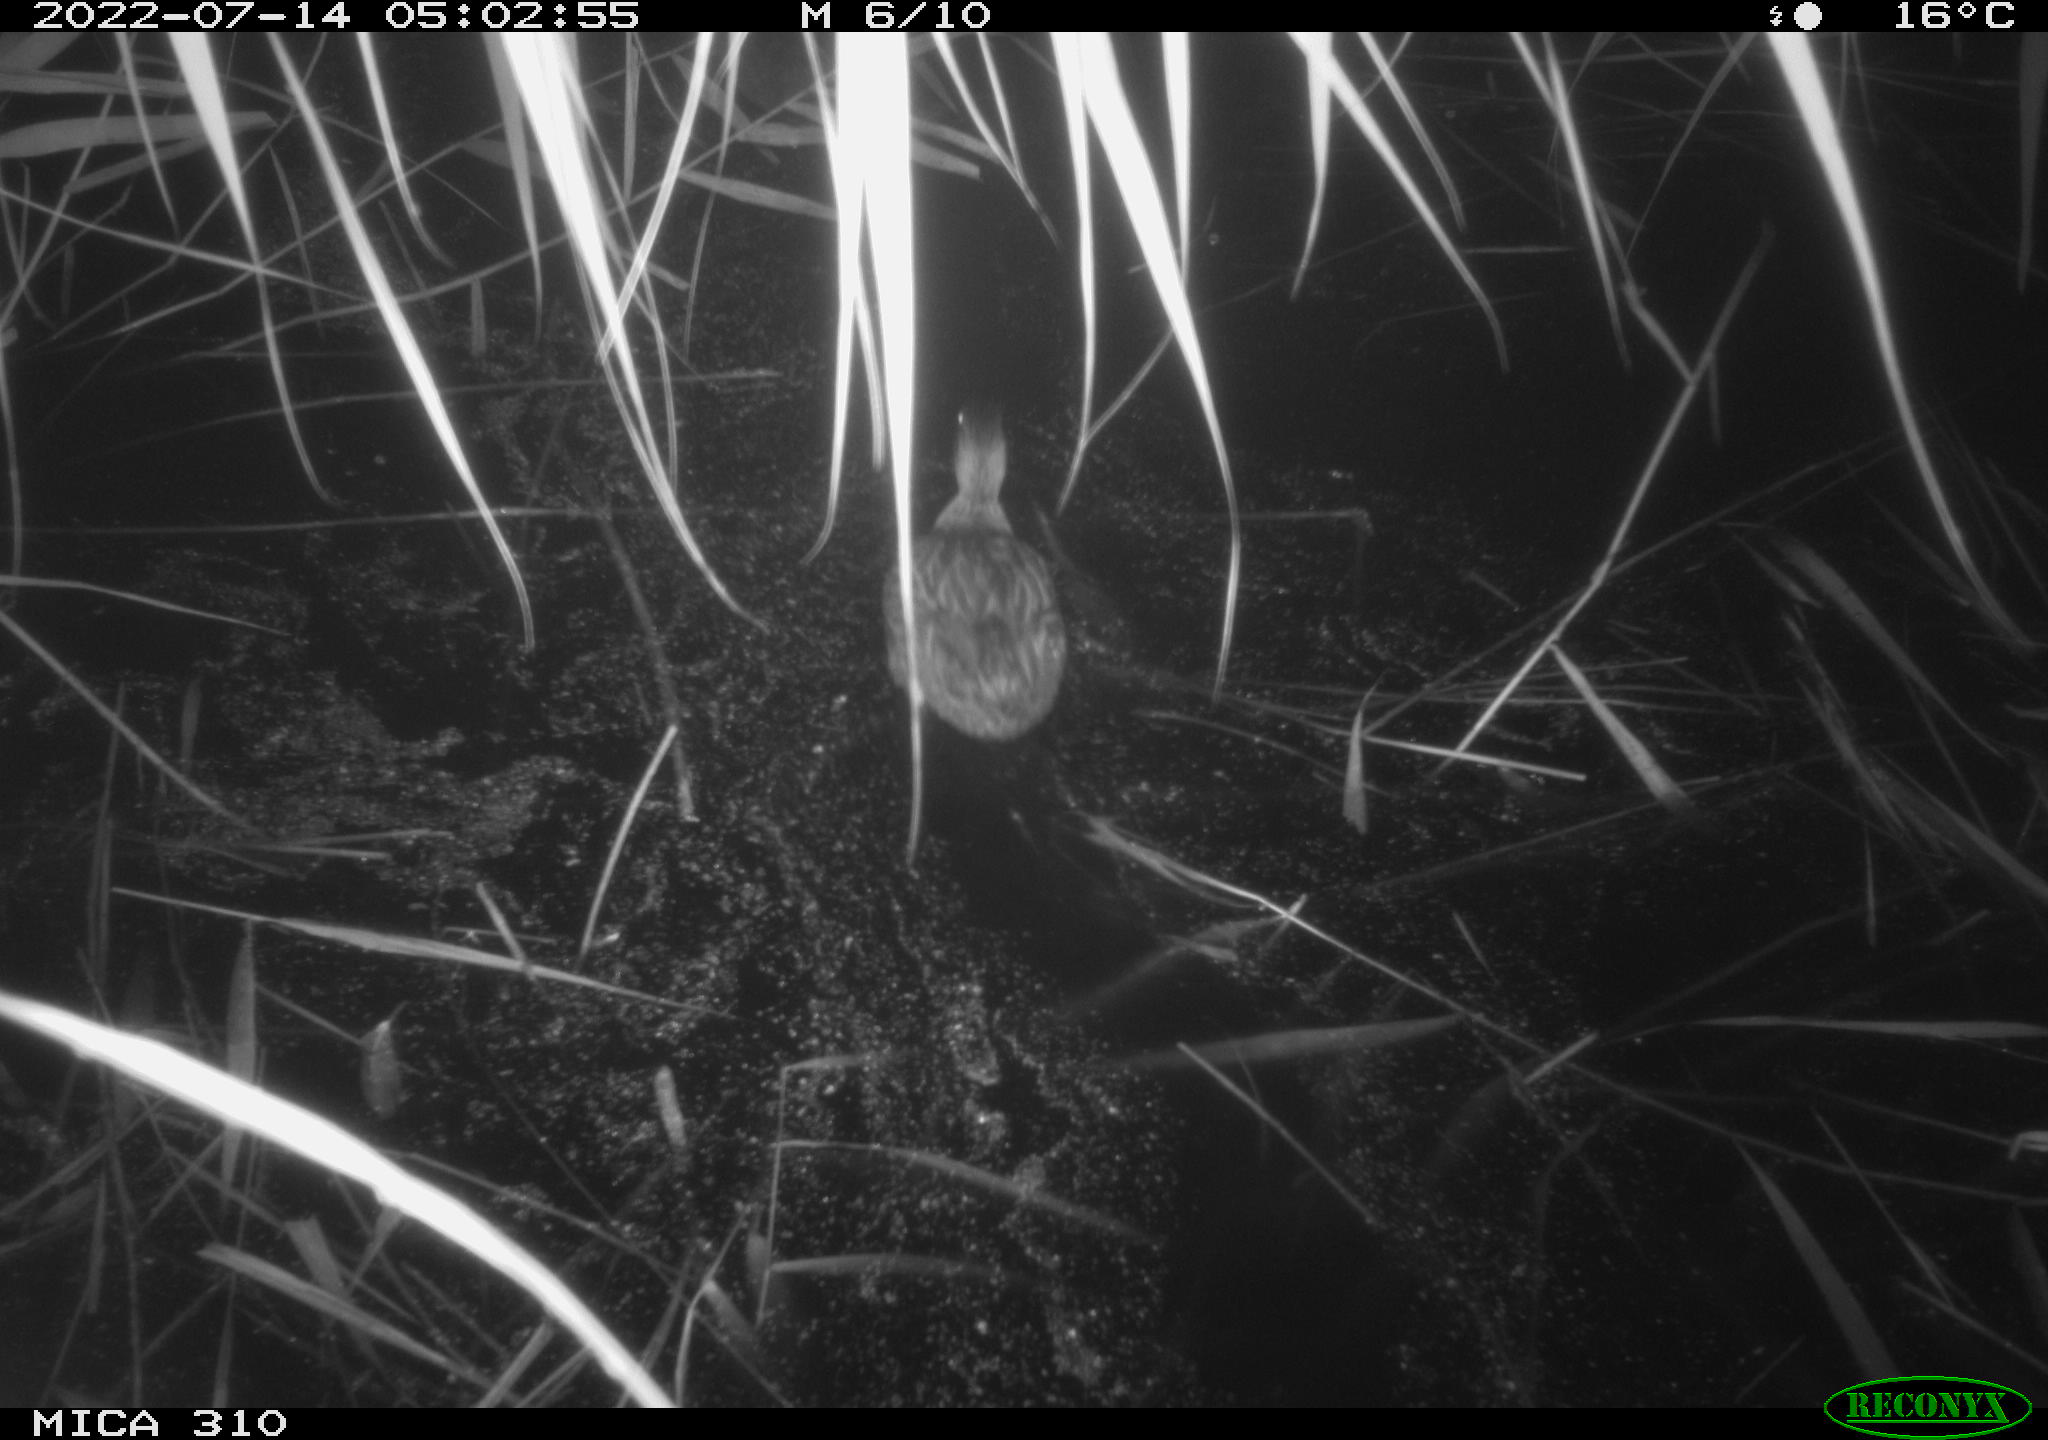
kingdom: Animalia
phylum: Chordata
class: Aves
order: Anseriformes
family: Anatidae
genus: Anas
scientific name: Anas platyrhynchos
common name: Mallard
